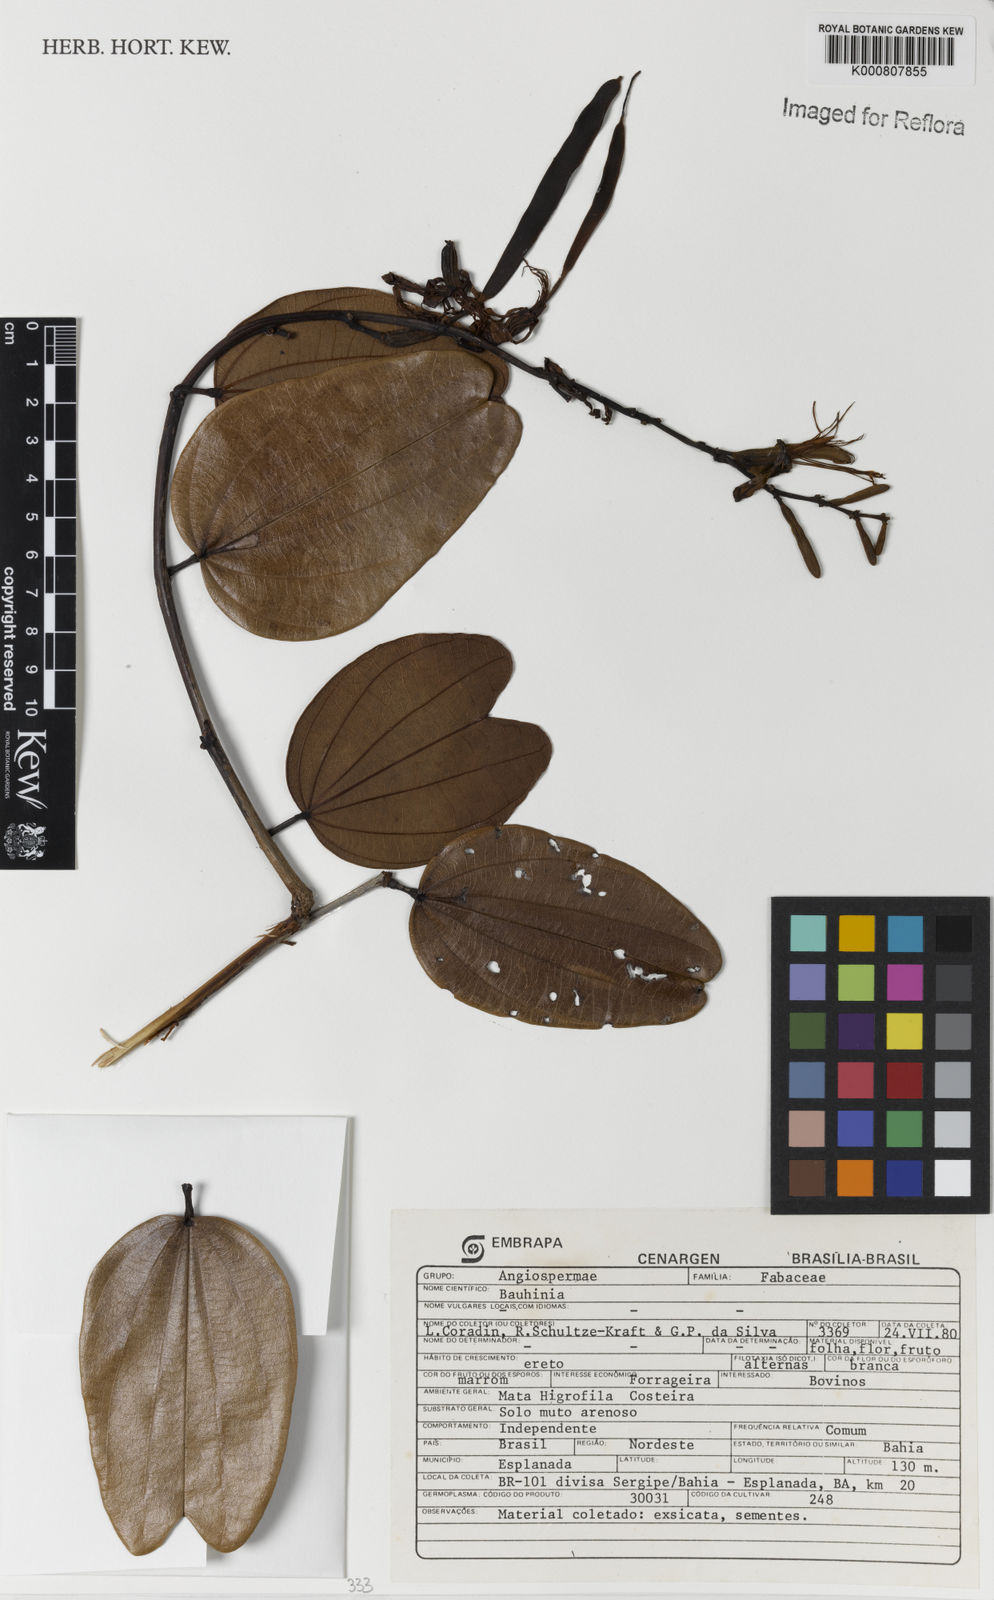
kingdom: Plantae
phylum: Tracheophyta
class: Magnoliopsida
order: Fabales
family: Fabaceae
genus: Bauhinia
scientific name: Bauhinia
